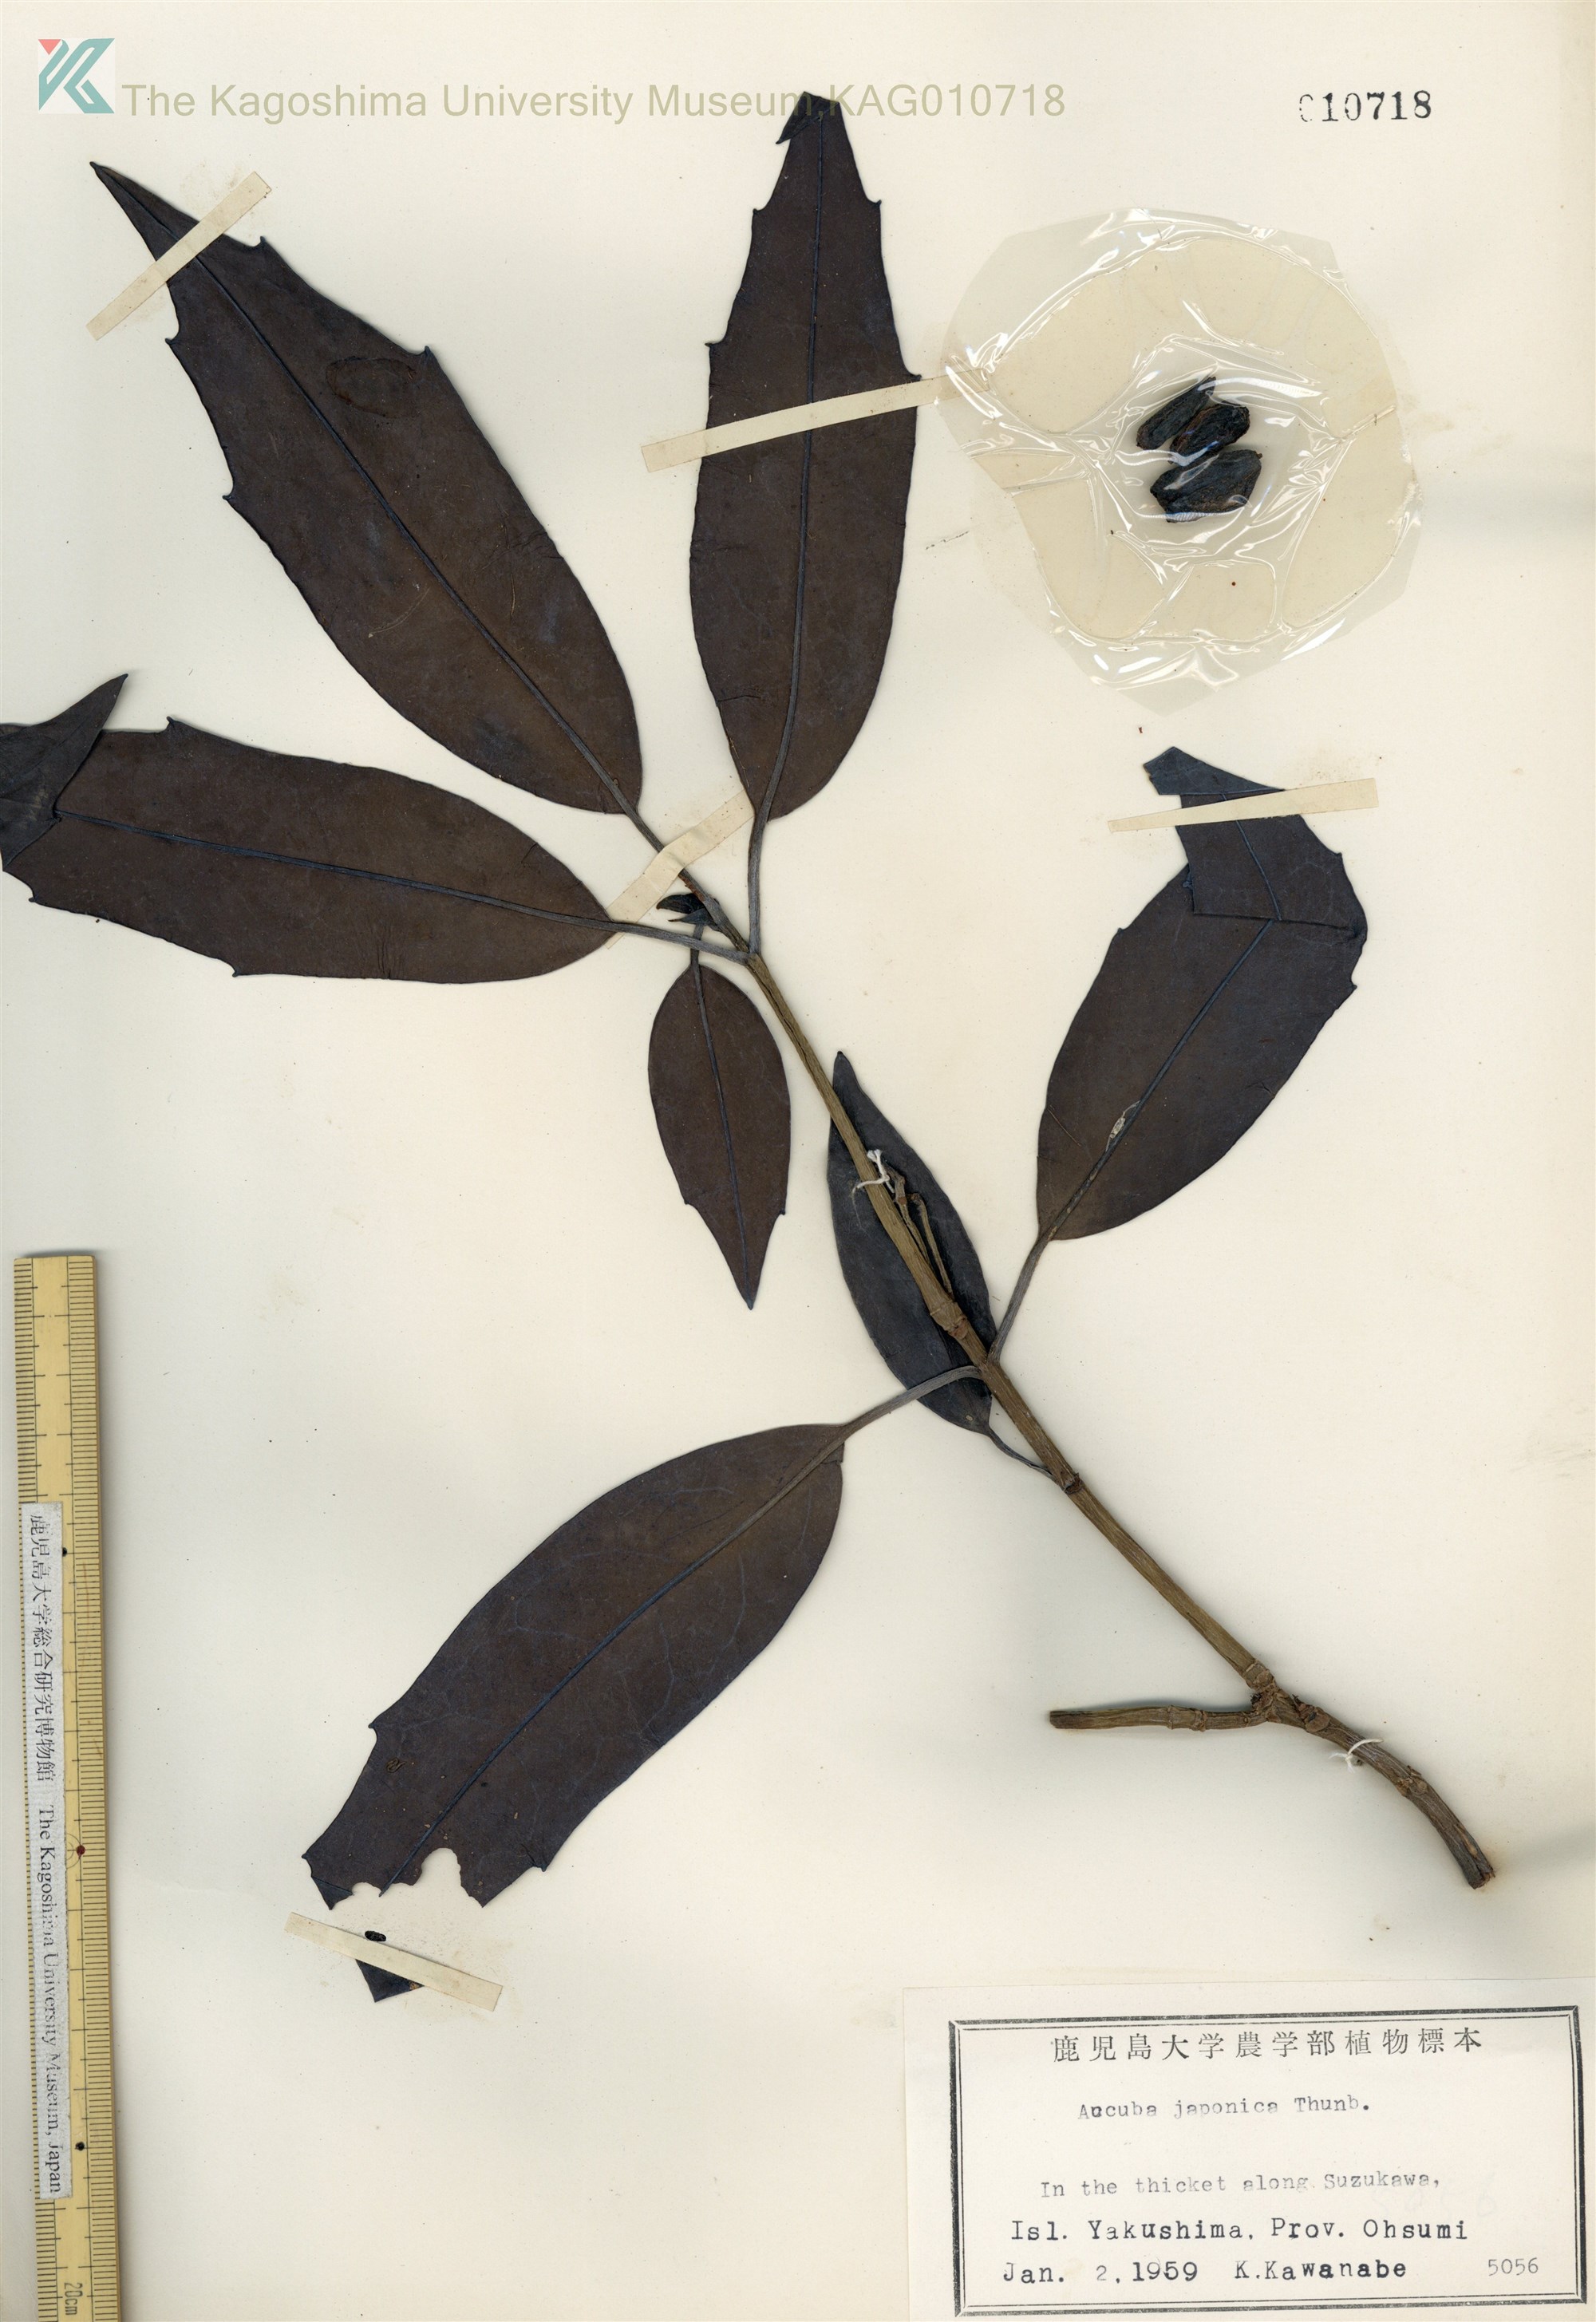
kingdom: Plantae
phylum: Tracheophyta
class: Magnoliopsida
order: Garryales
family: Garryaceae
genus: Aucuba
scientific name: Aucuba japonica
